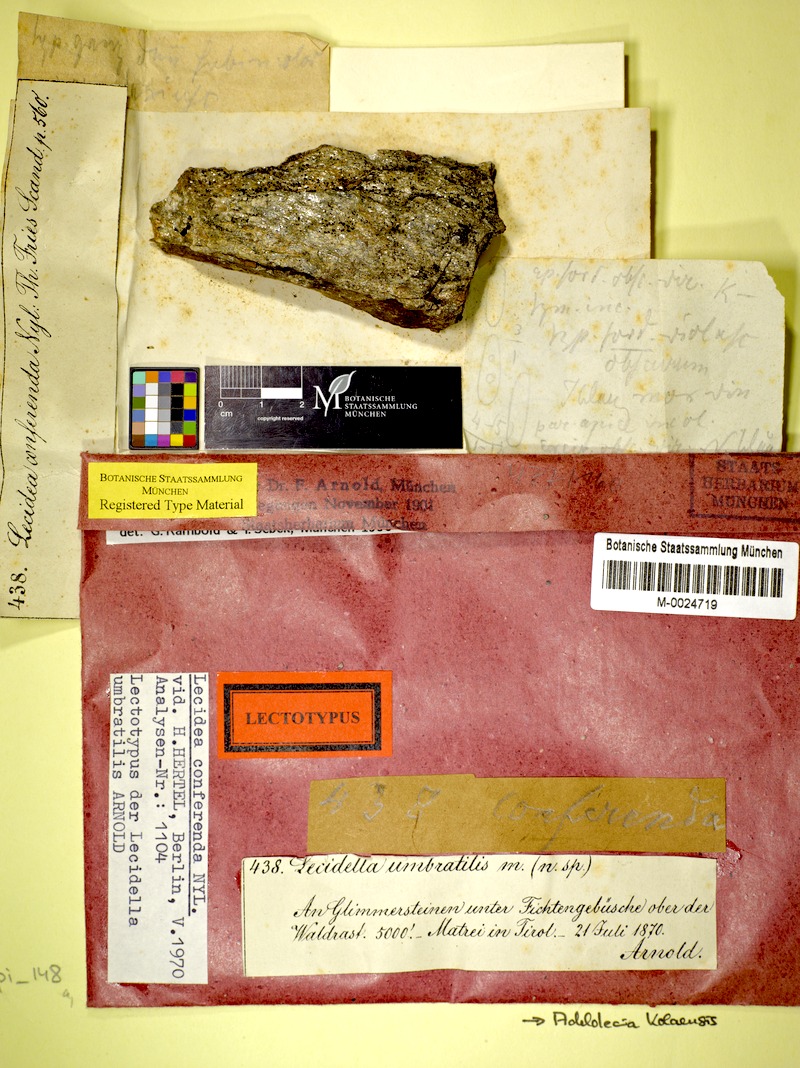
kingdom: Fungi
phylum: Ascomycota
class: Lecanoromycetes
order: Lecanorales
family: Lecanoraceae
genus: Adelolecia
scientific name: Adelolecia kolaensis
